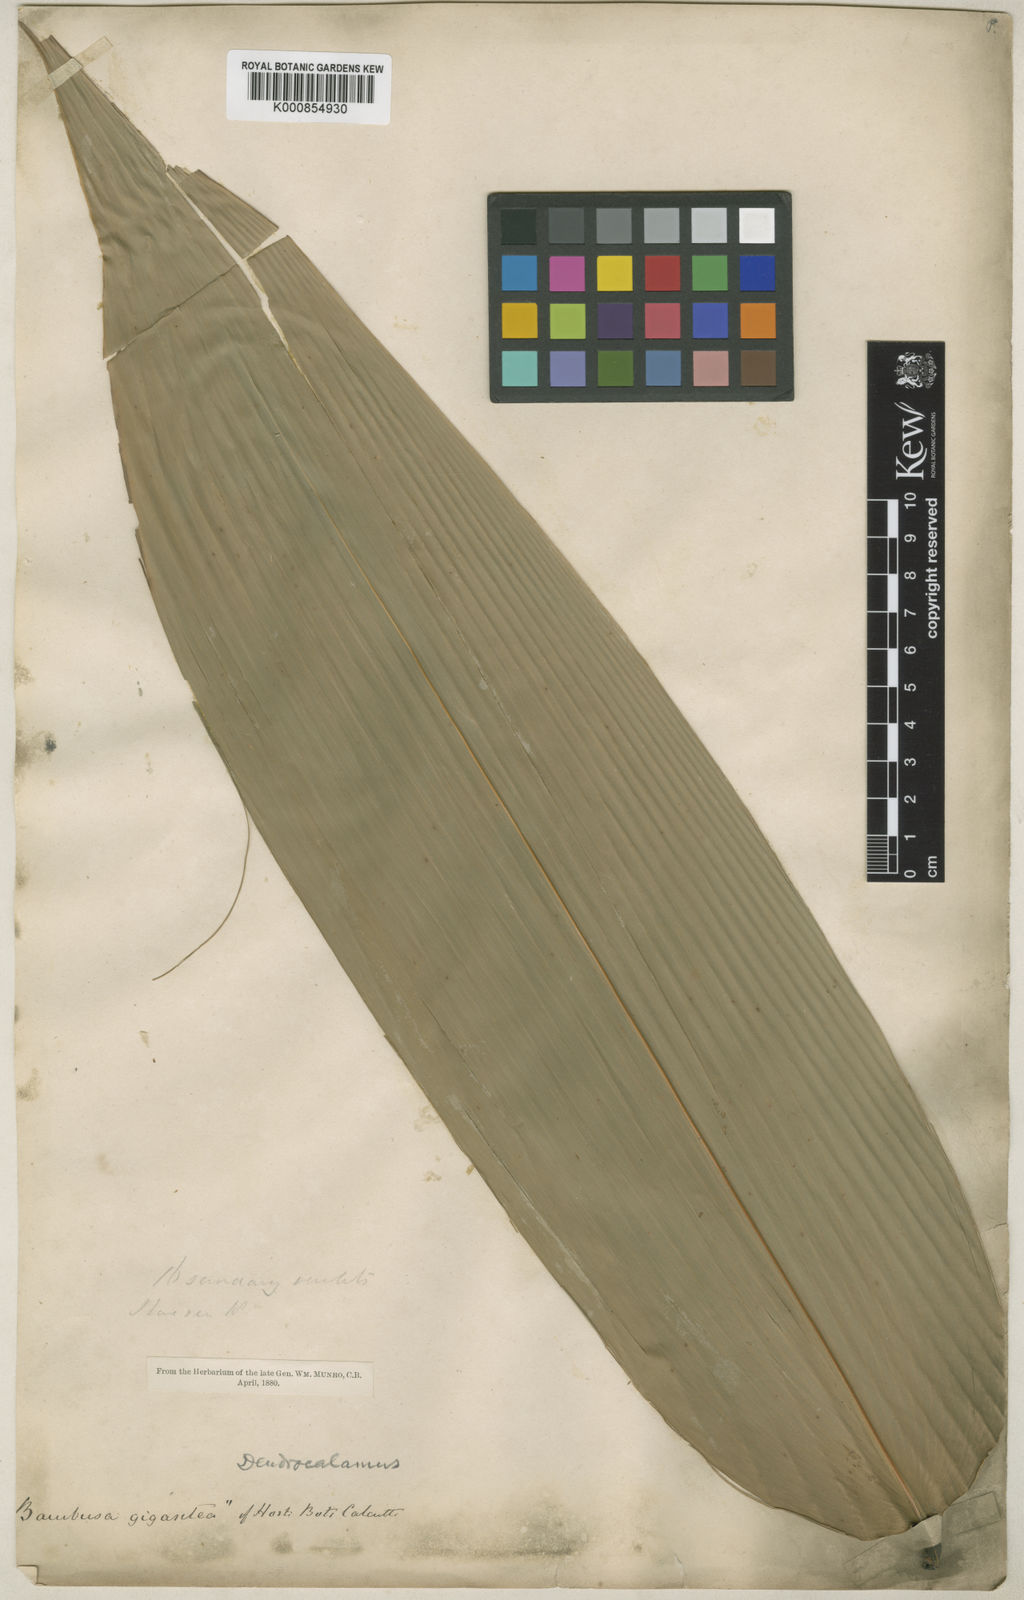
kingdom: Plantae
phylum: Tracheophyta
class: Liliopsida
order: Poales
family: Poaceae
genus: Dendrocalamus
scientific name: Dendrocalamus giganteus
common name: Giant bamboo
